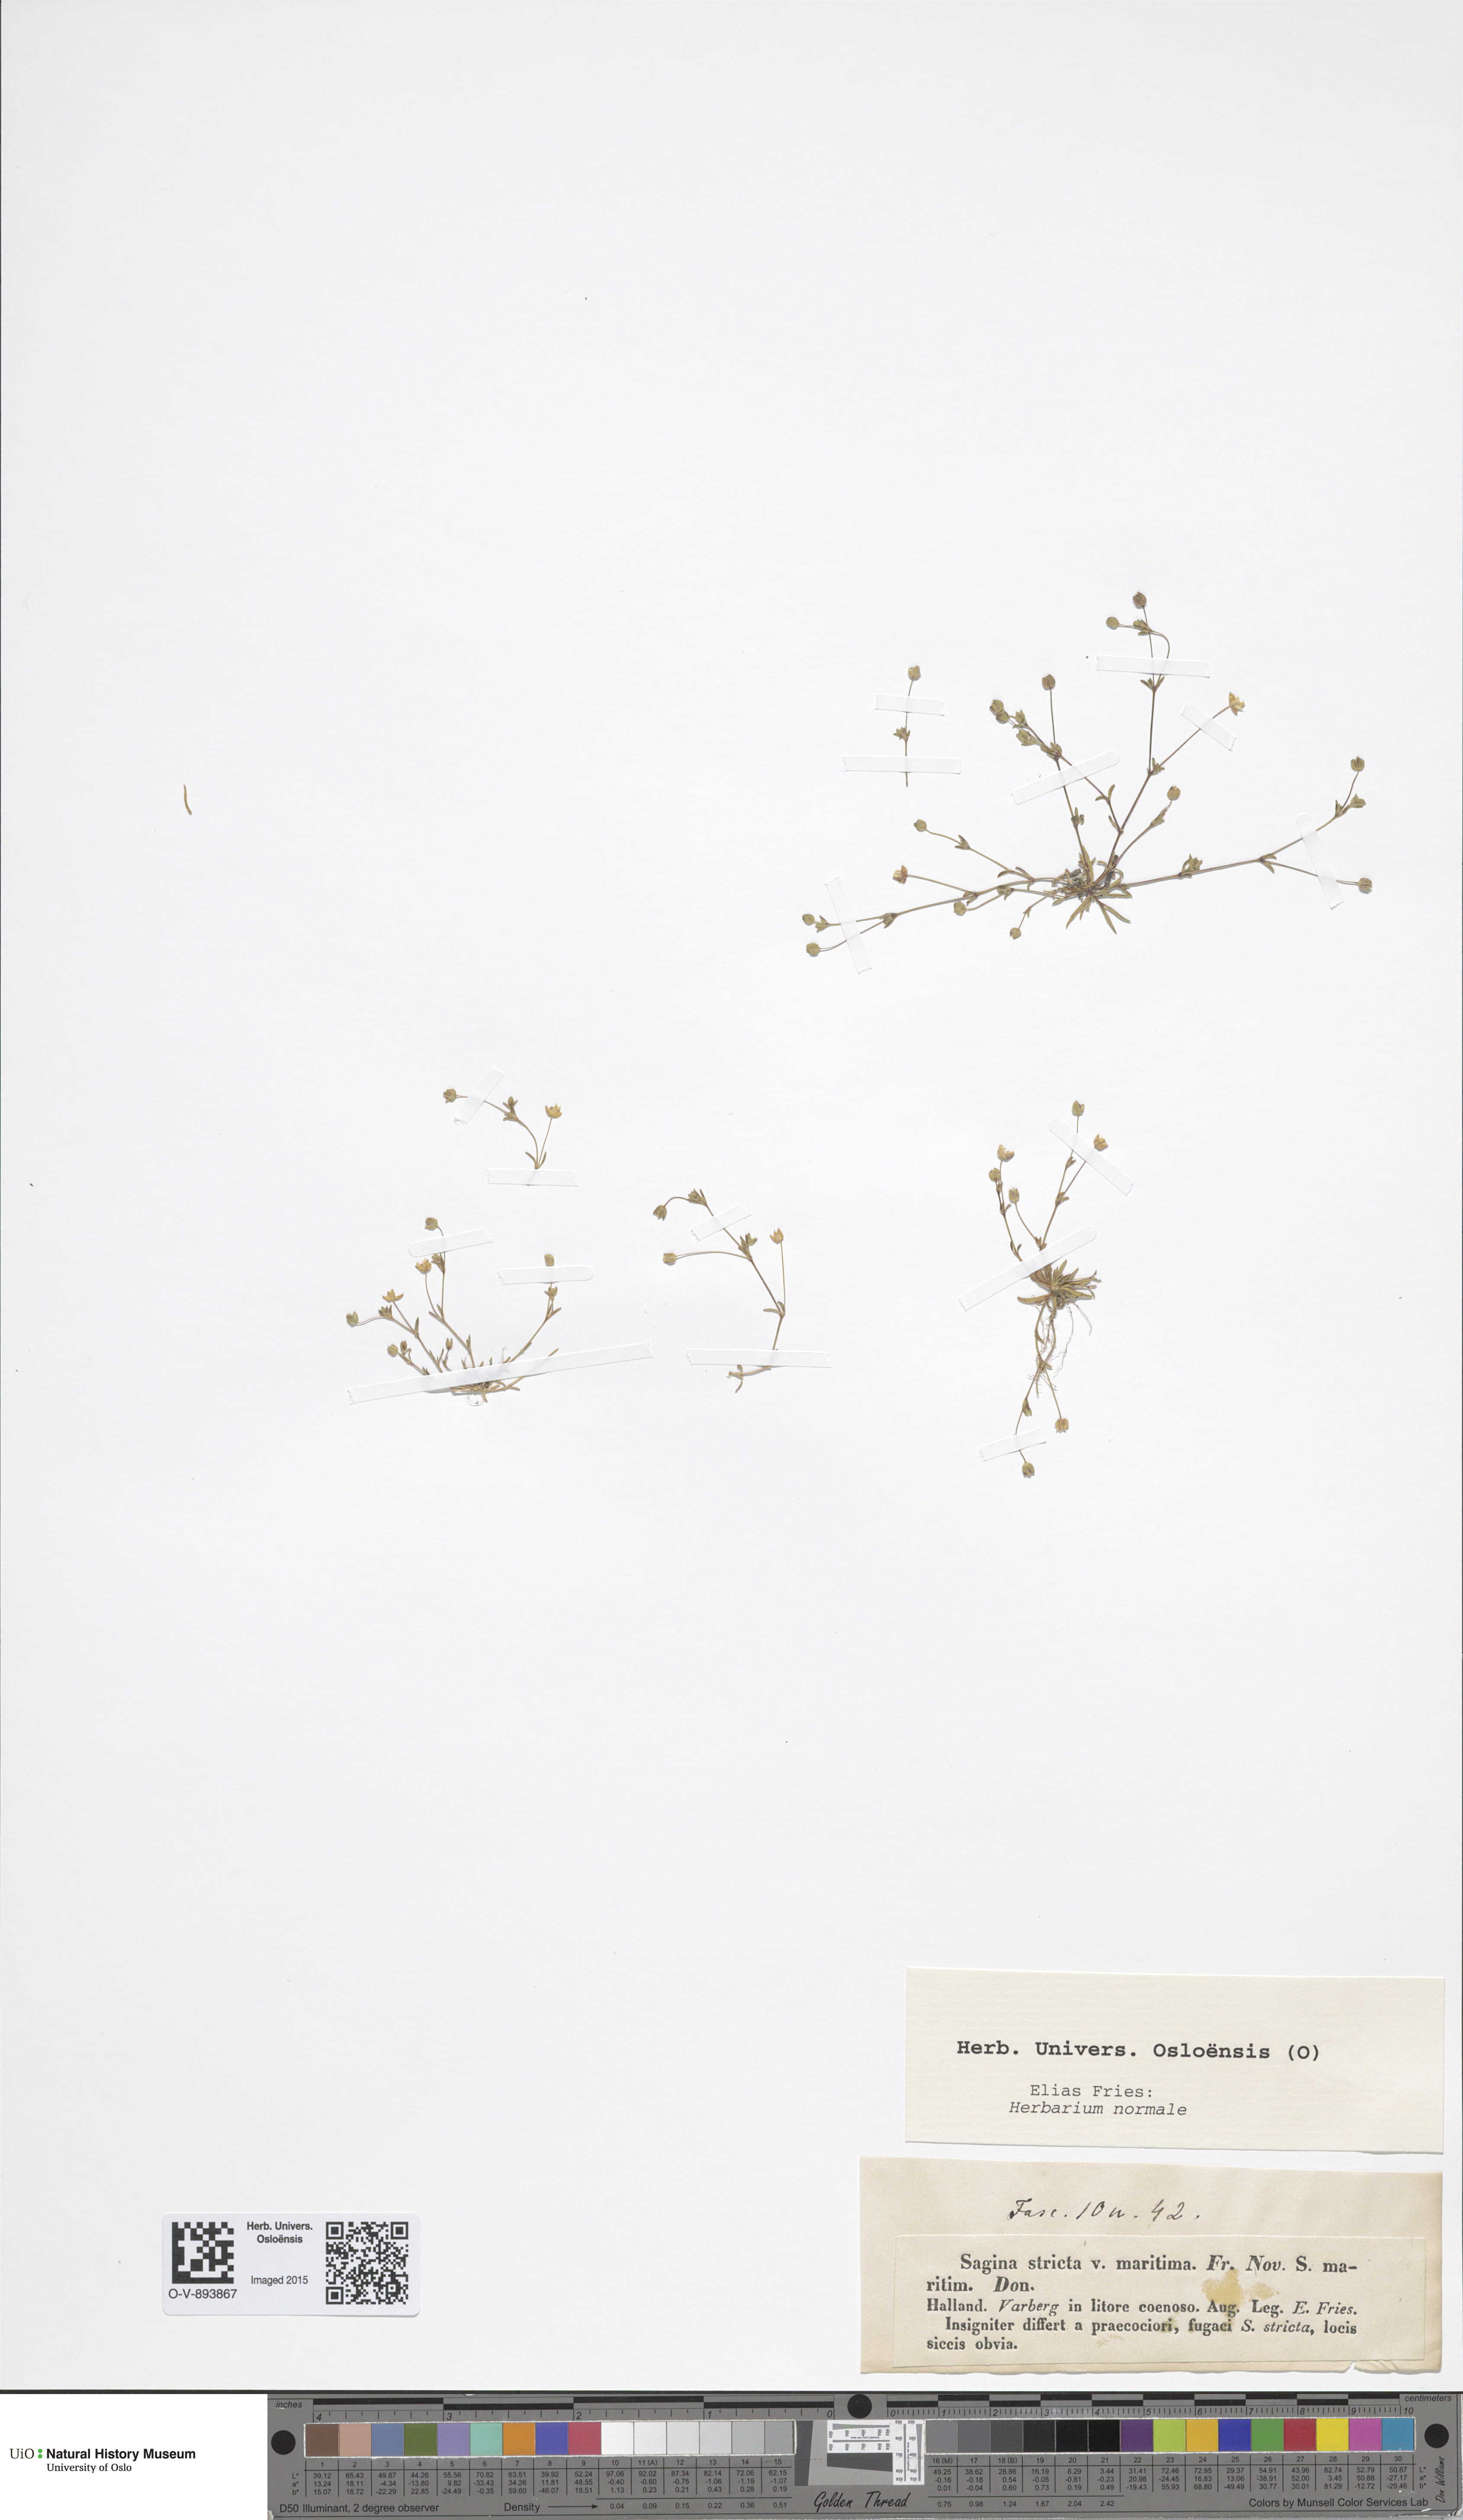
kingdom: Plantae
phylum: Tracheophyta
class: Magnoliopsida
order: Caryophyllales
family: Caryophyllaceae
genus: Sagina
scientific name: Sagina maritima
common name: Sea pearlwort
